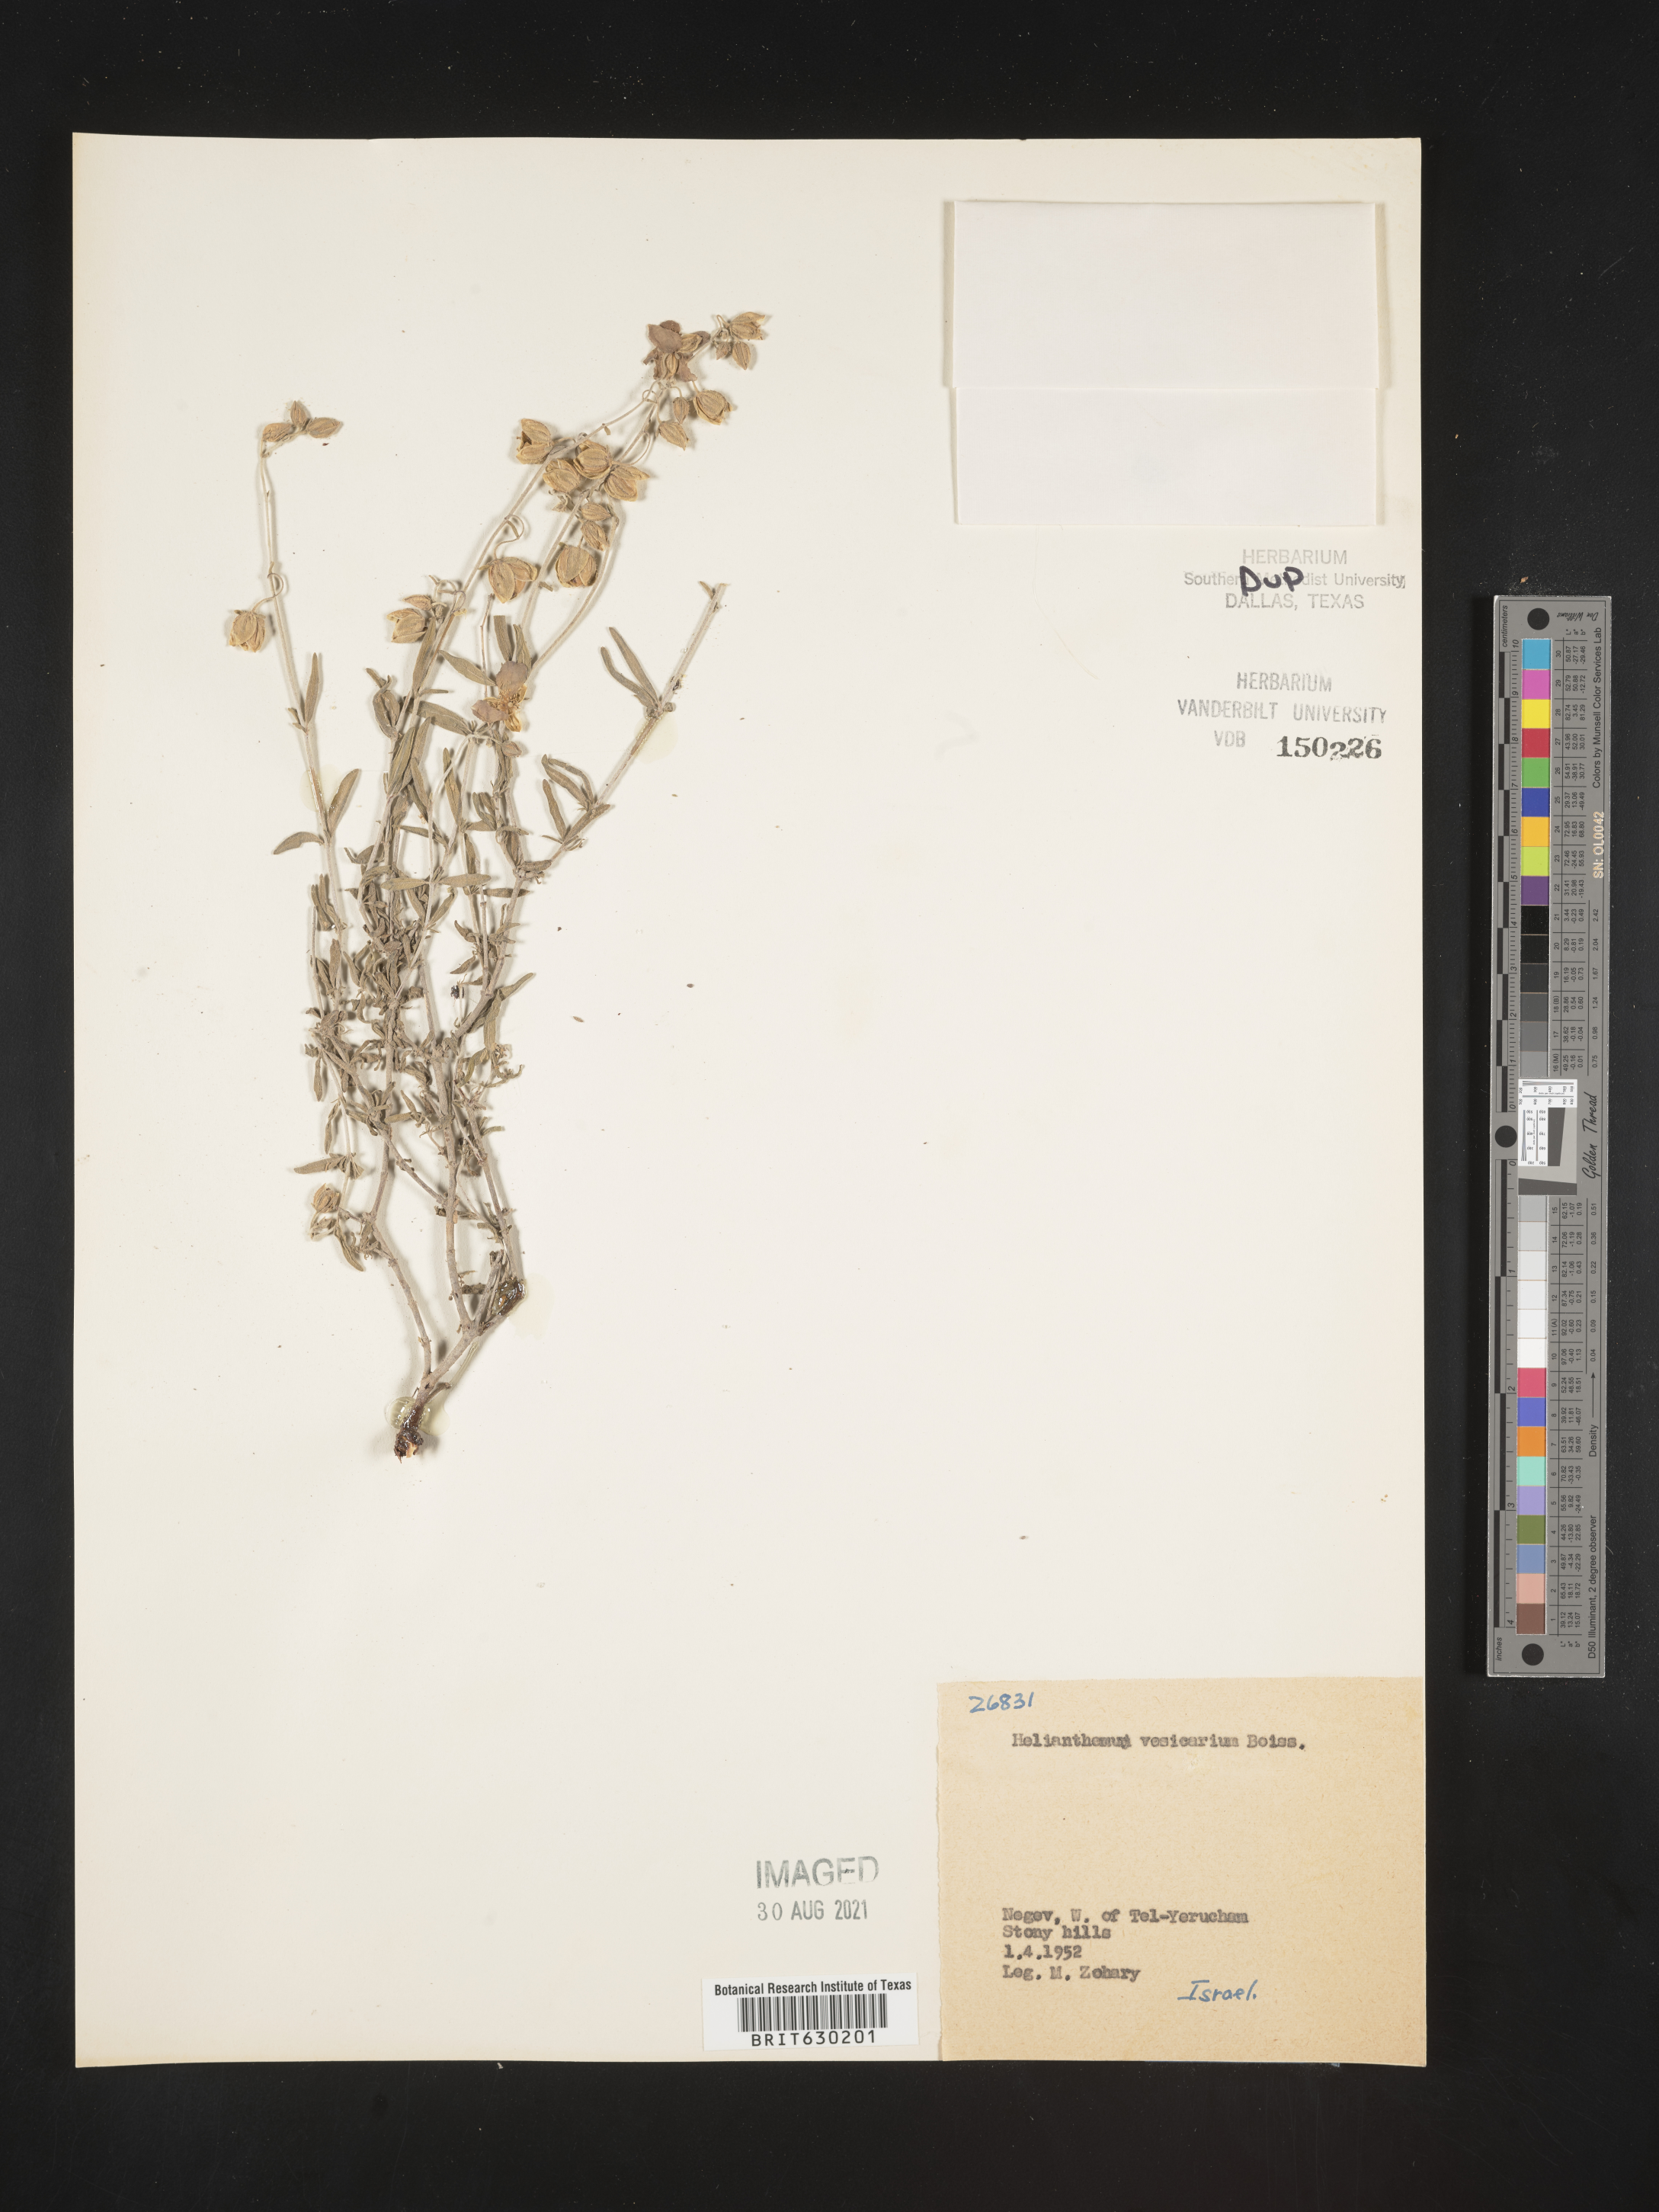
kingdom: Plantae
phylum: Tracheophyta
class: Magnoliopsida
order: Malvales
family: Cistaceae
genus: Helianthemum
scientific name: Helianthemum
